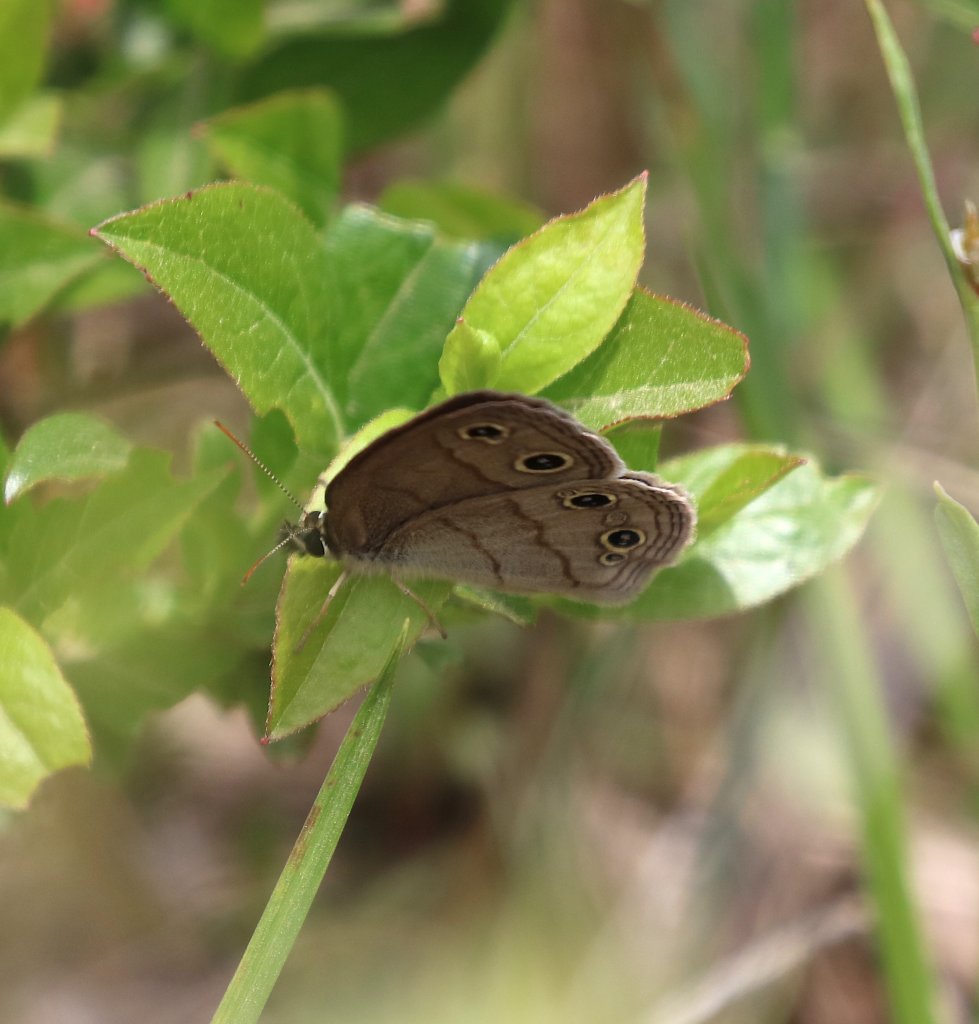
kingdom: Animalia
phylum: Arthropoda
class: Insecta
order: Lepidoptera
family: Nymphalidae
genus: Euptychia
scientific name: Euptychia cymela
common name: Little Wood Satyr
